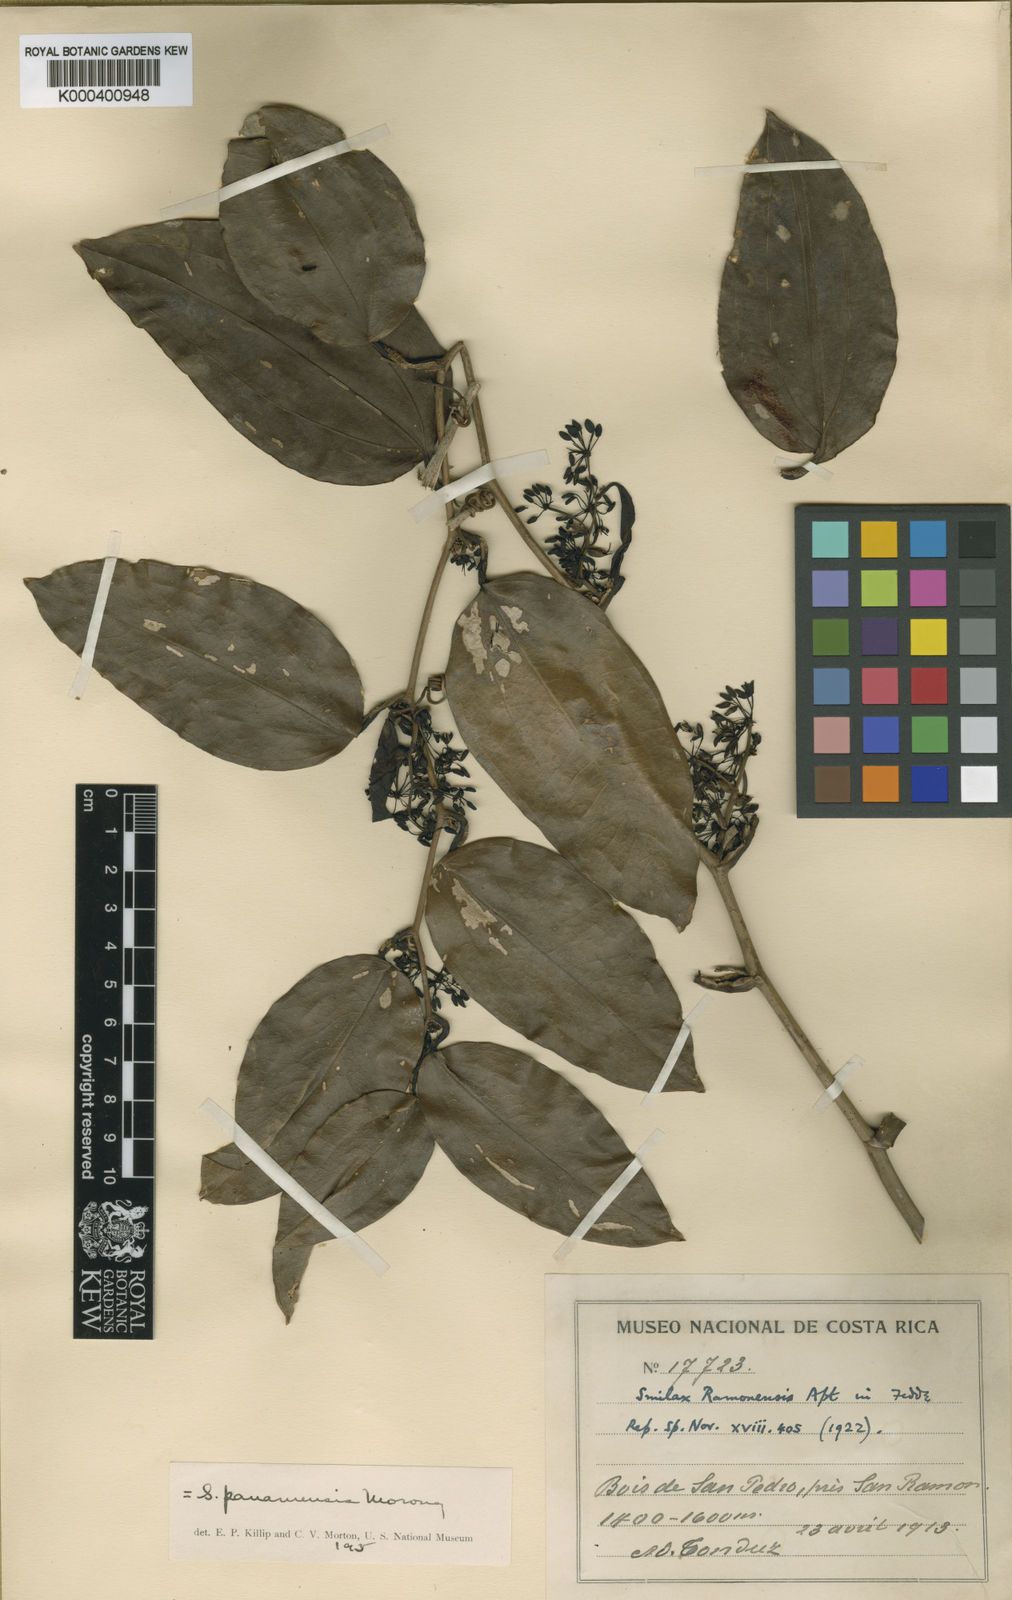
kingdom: Plantae
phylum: Tracheophyta
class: Liliopsida
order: Liliales
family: Smilacaceae
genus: Smilax
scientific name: Smilax purhampuy
